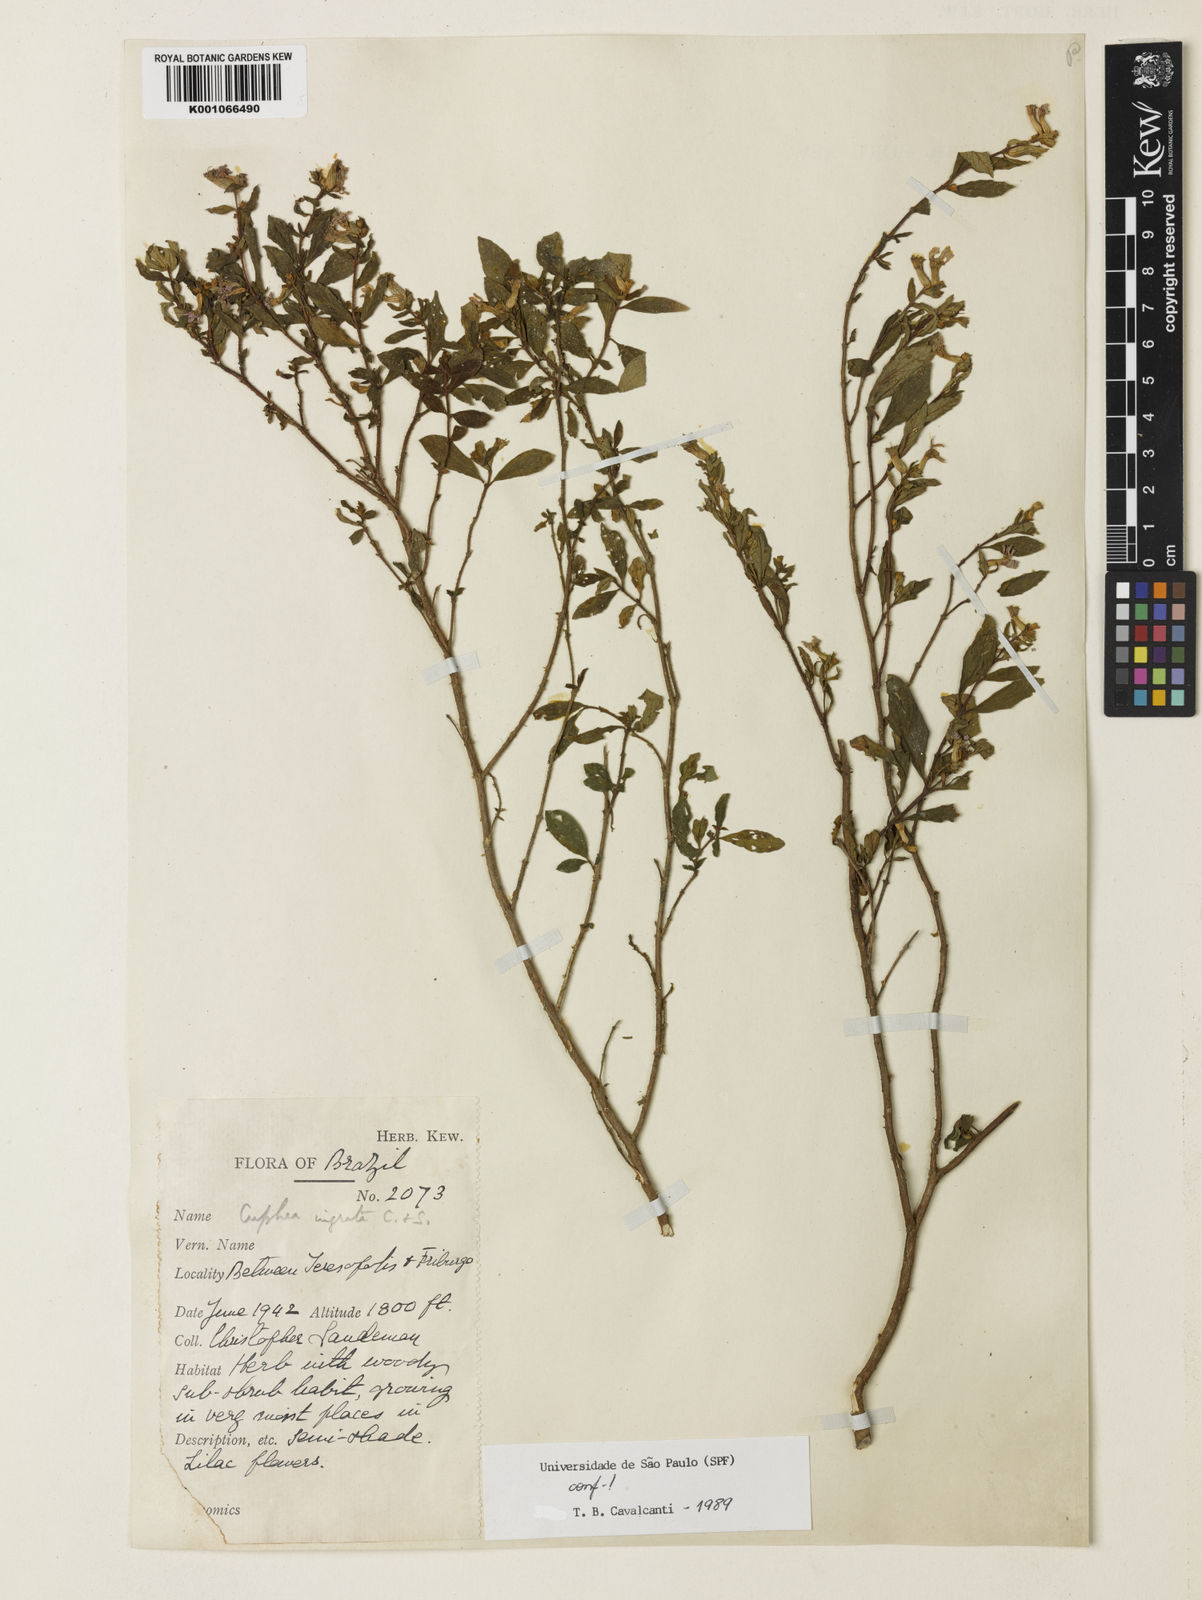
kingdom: Plantae
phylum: Tracheophyta
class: Magnoliopsida
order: Myrtales
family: Lythraceae
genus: Cuphea
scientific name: Cuphea ingrata
